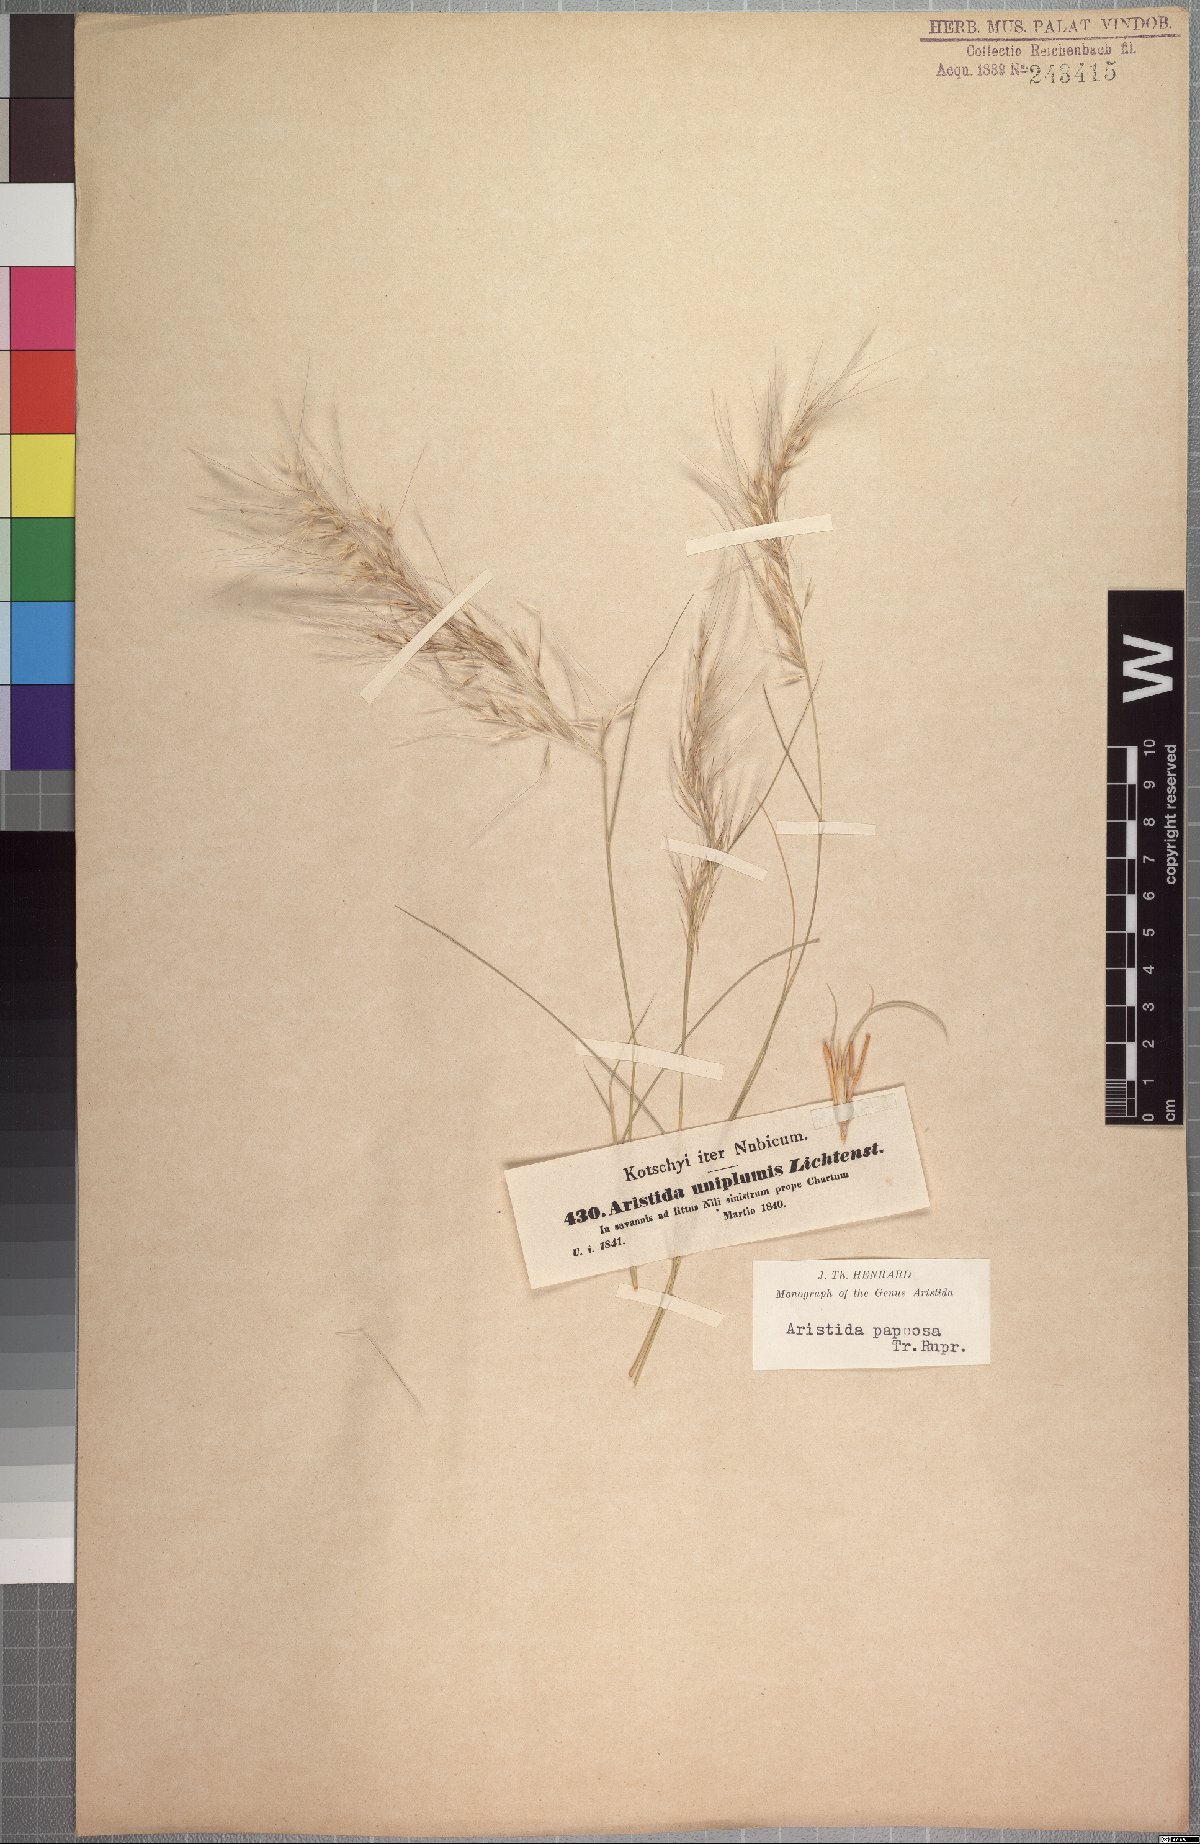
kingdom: Plantae
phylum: Tracheophyta
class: Liliopsida
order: Poales
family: Poaceae
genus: Stipagrostis
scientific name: Stipagrostis uniplumis
